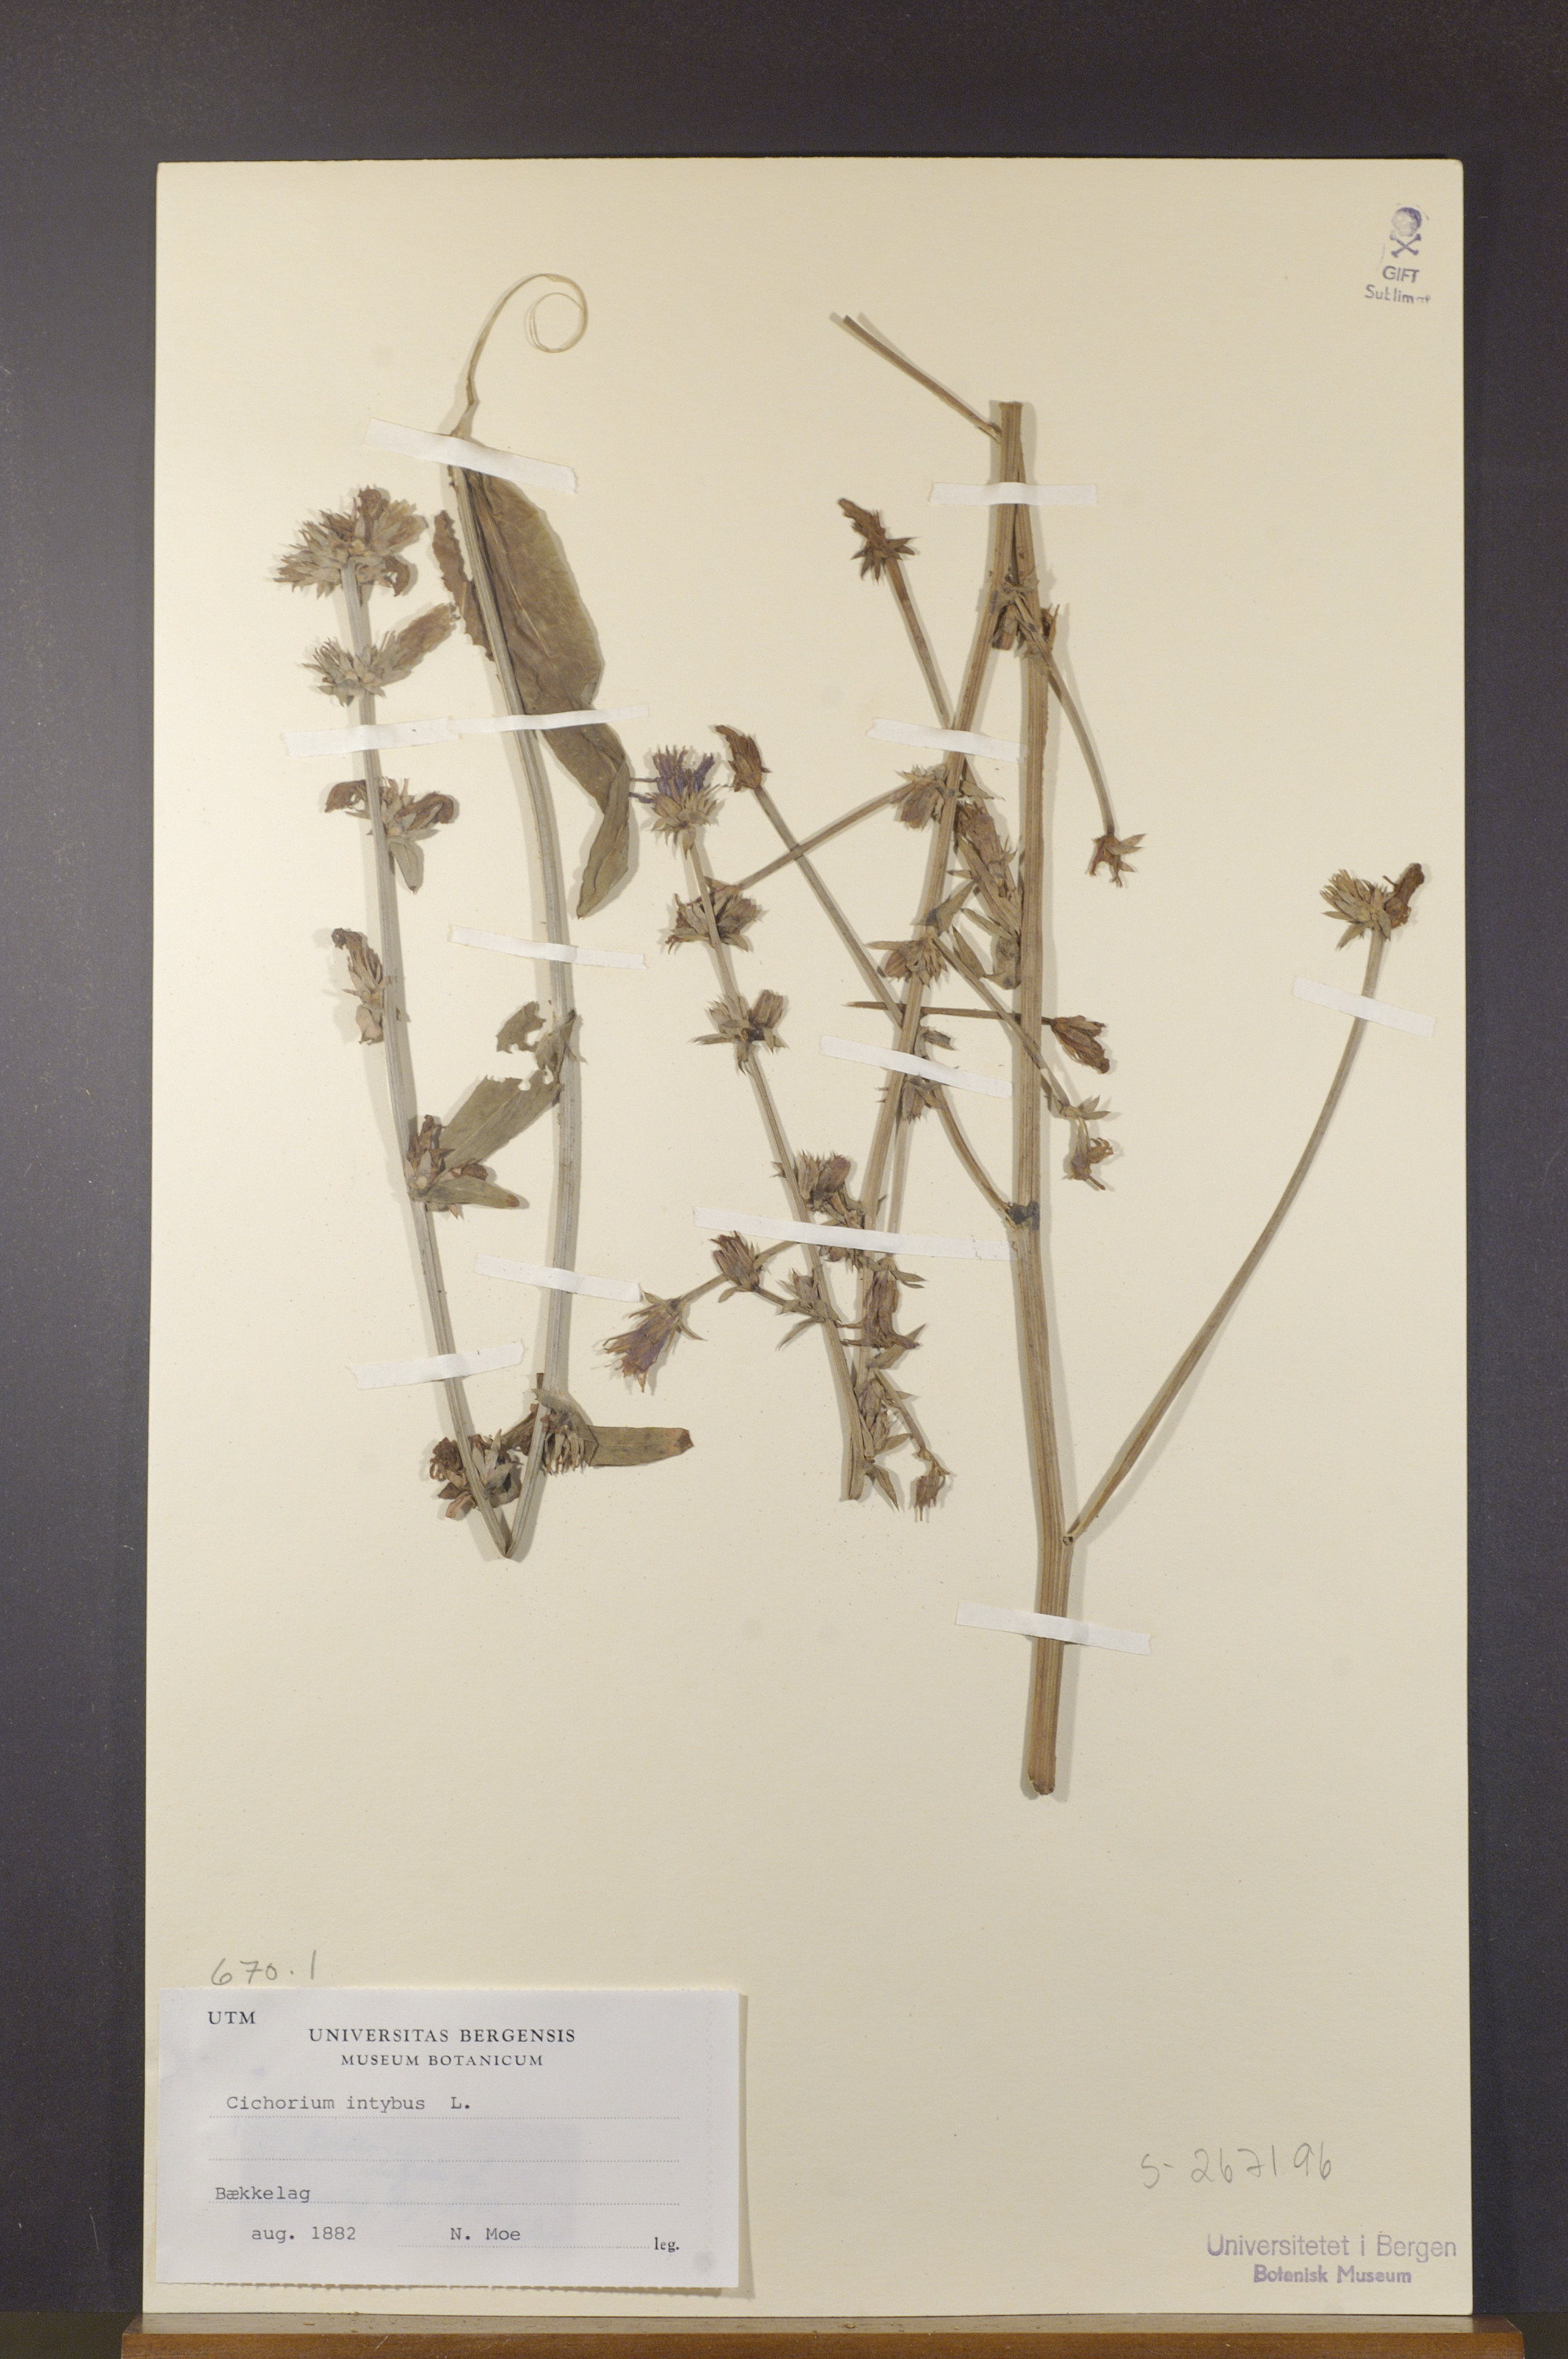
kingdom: Plantae
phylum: Tracheophyta
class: Magnoliopsida
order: Asterales
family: Asteraceae
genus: Cichorium
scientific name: Cichorium intybus
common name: Chicory
